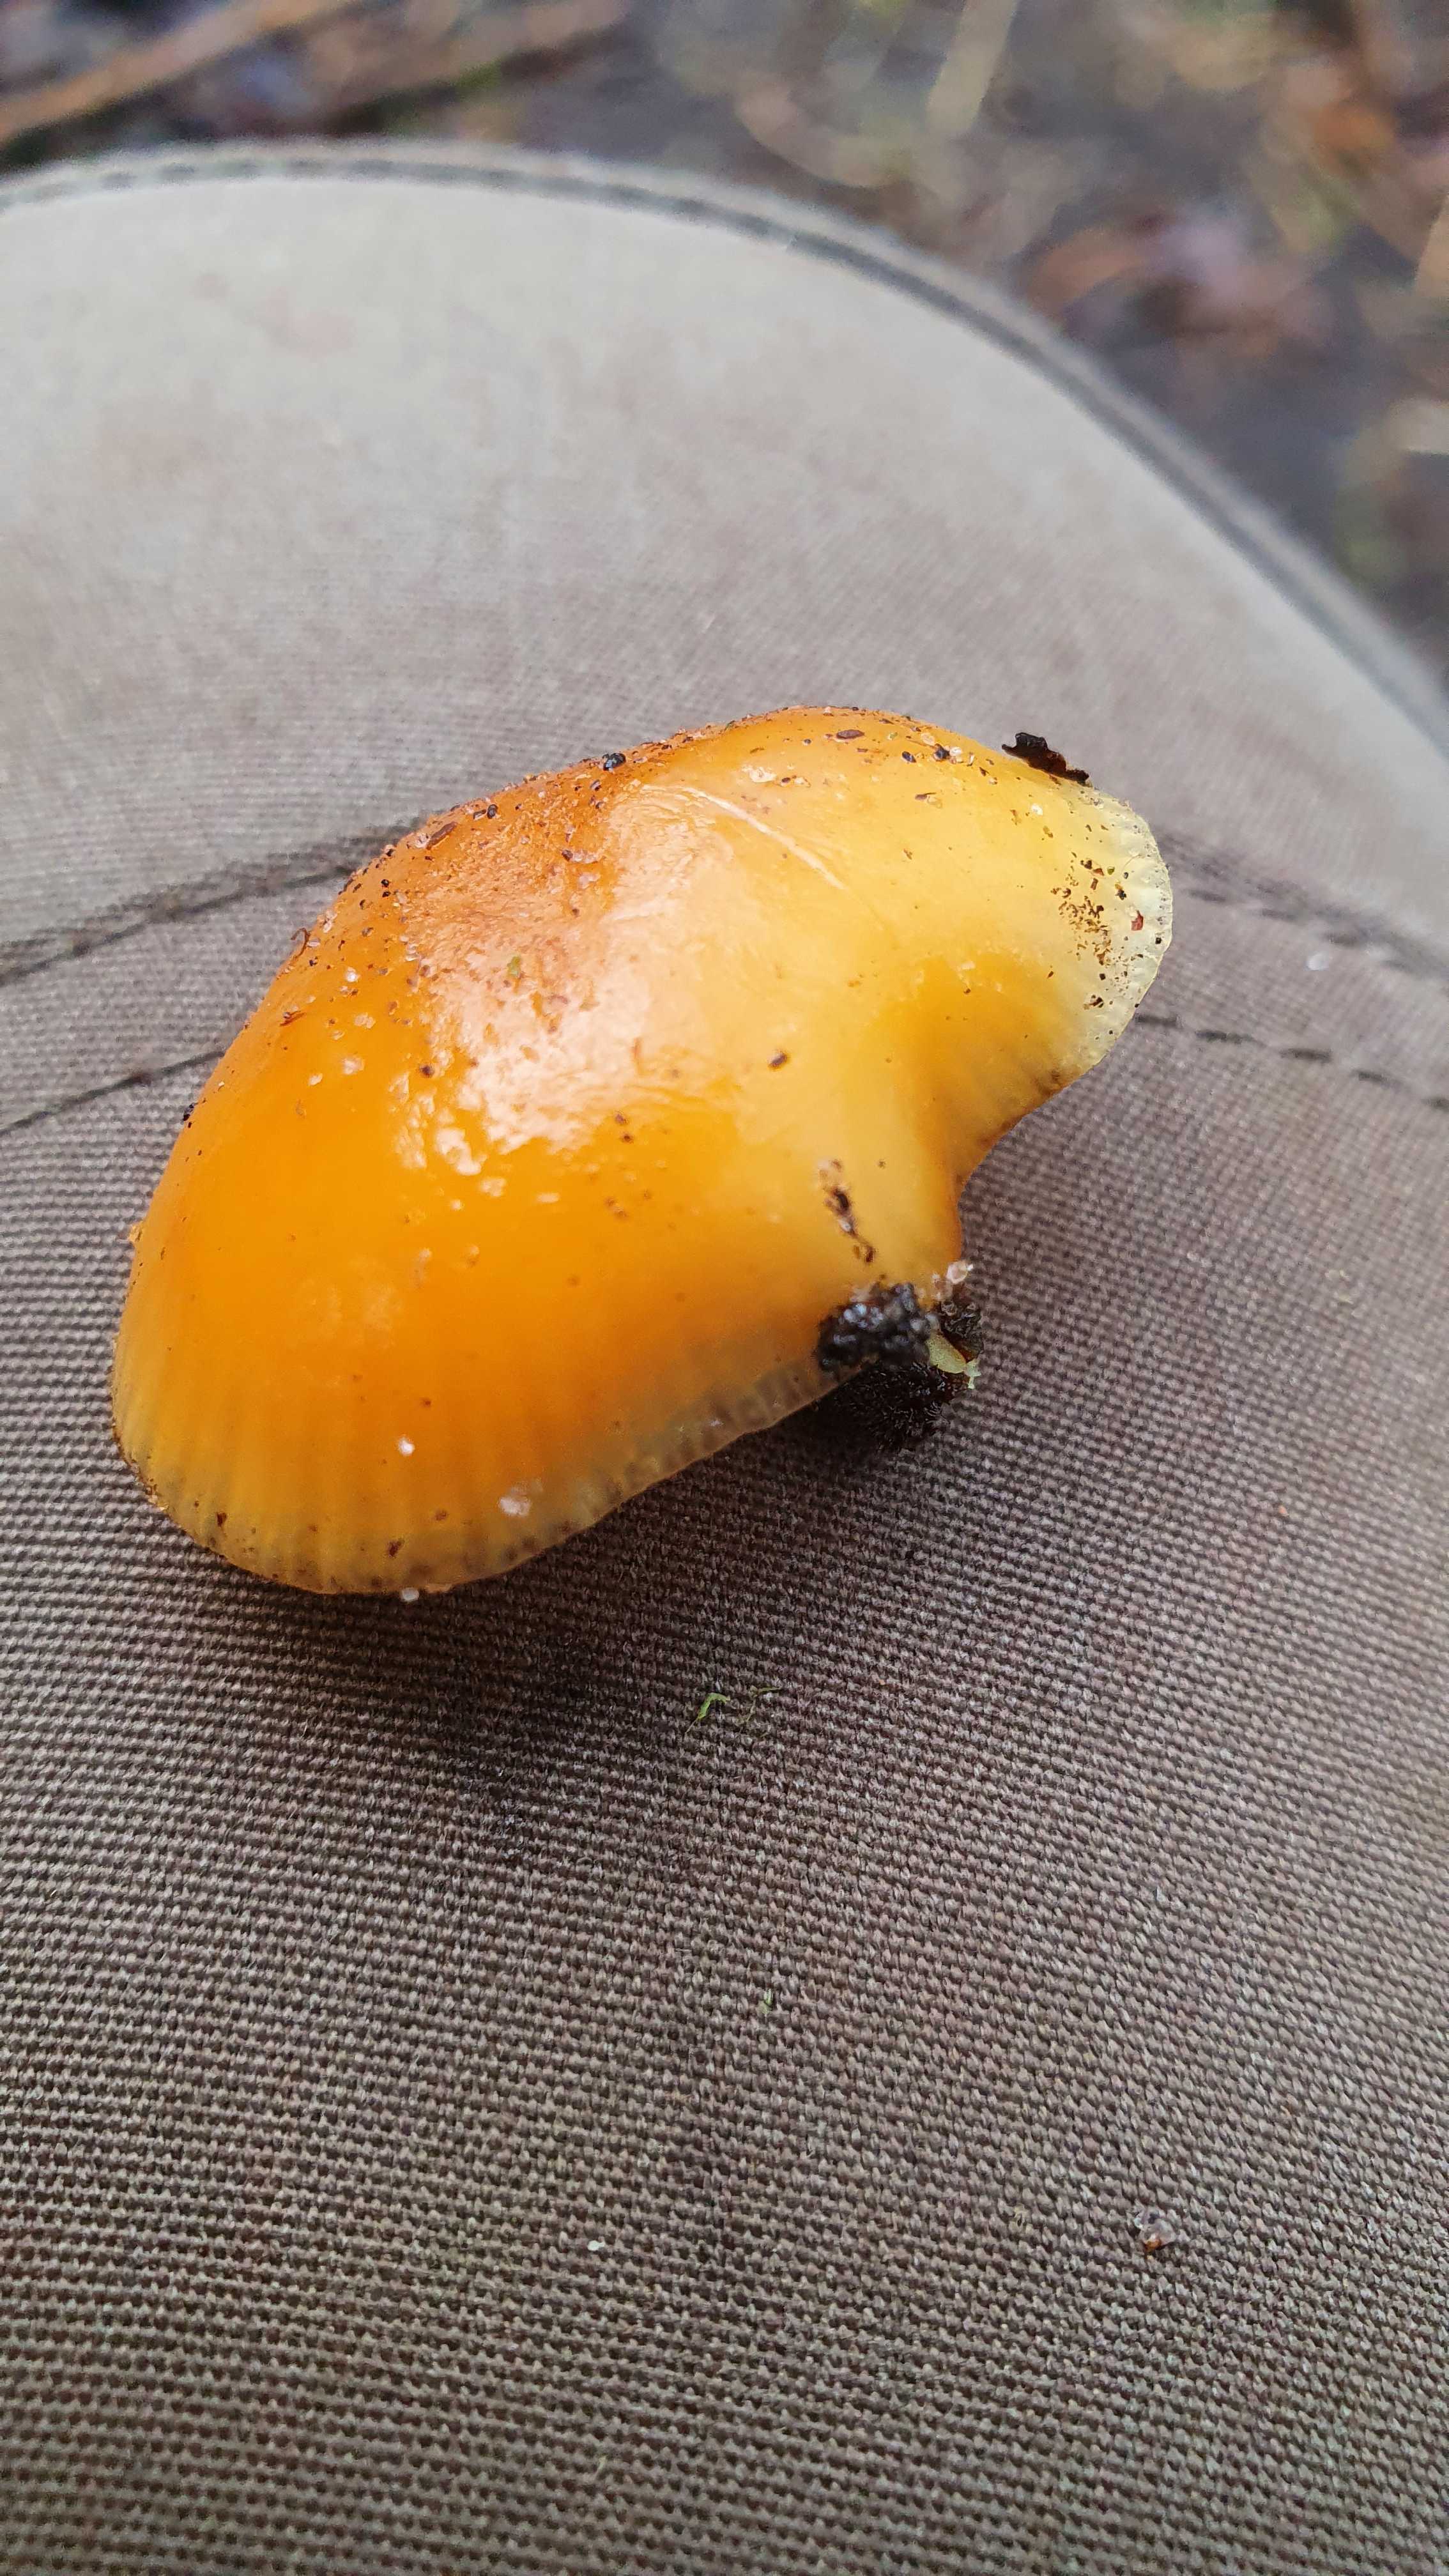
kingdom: Fungi
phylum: Basidiomycota
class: Agaricomycetes
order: Agaricales
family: Physalacriaceae
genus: Flammulina
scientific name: Flammulina
